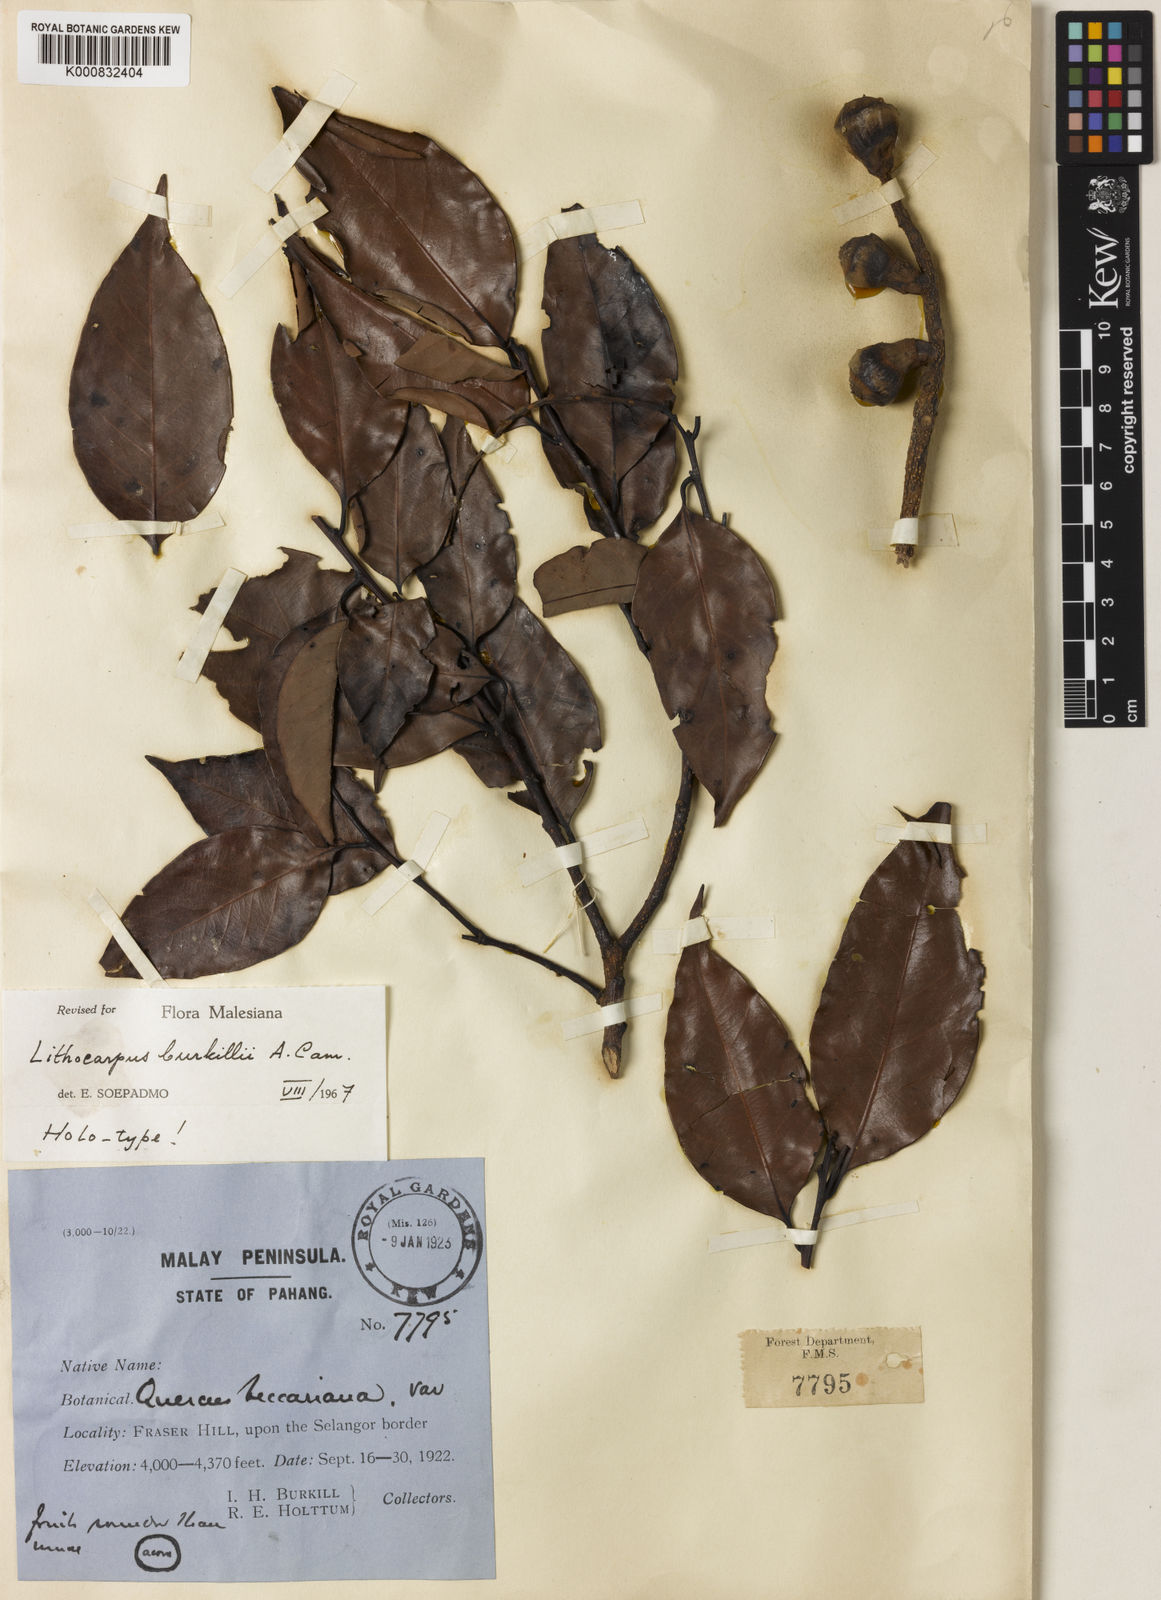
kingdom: Plantae
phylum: Tracheophyta
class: Magnoliopsida
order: Fagales
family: Fagaceae
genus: Lithocarpus
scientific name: Lithocarpus burkillii
